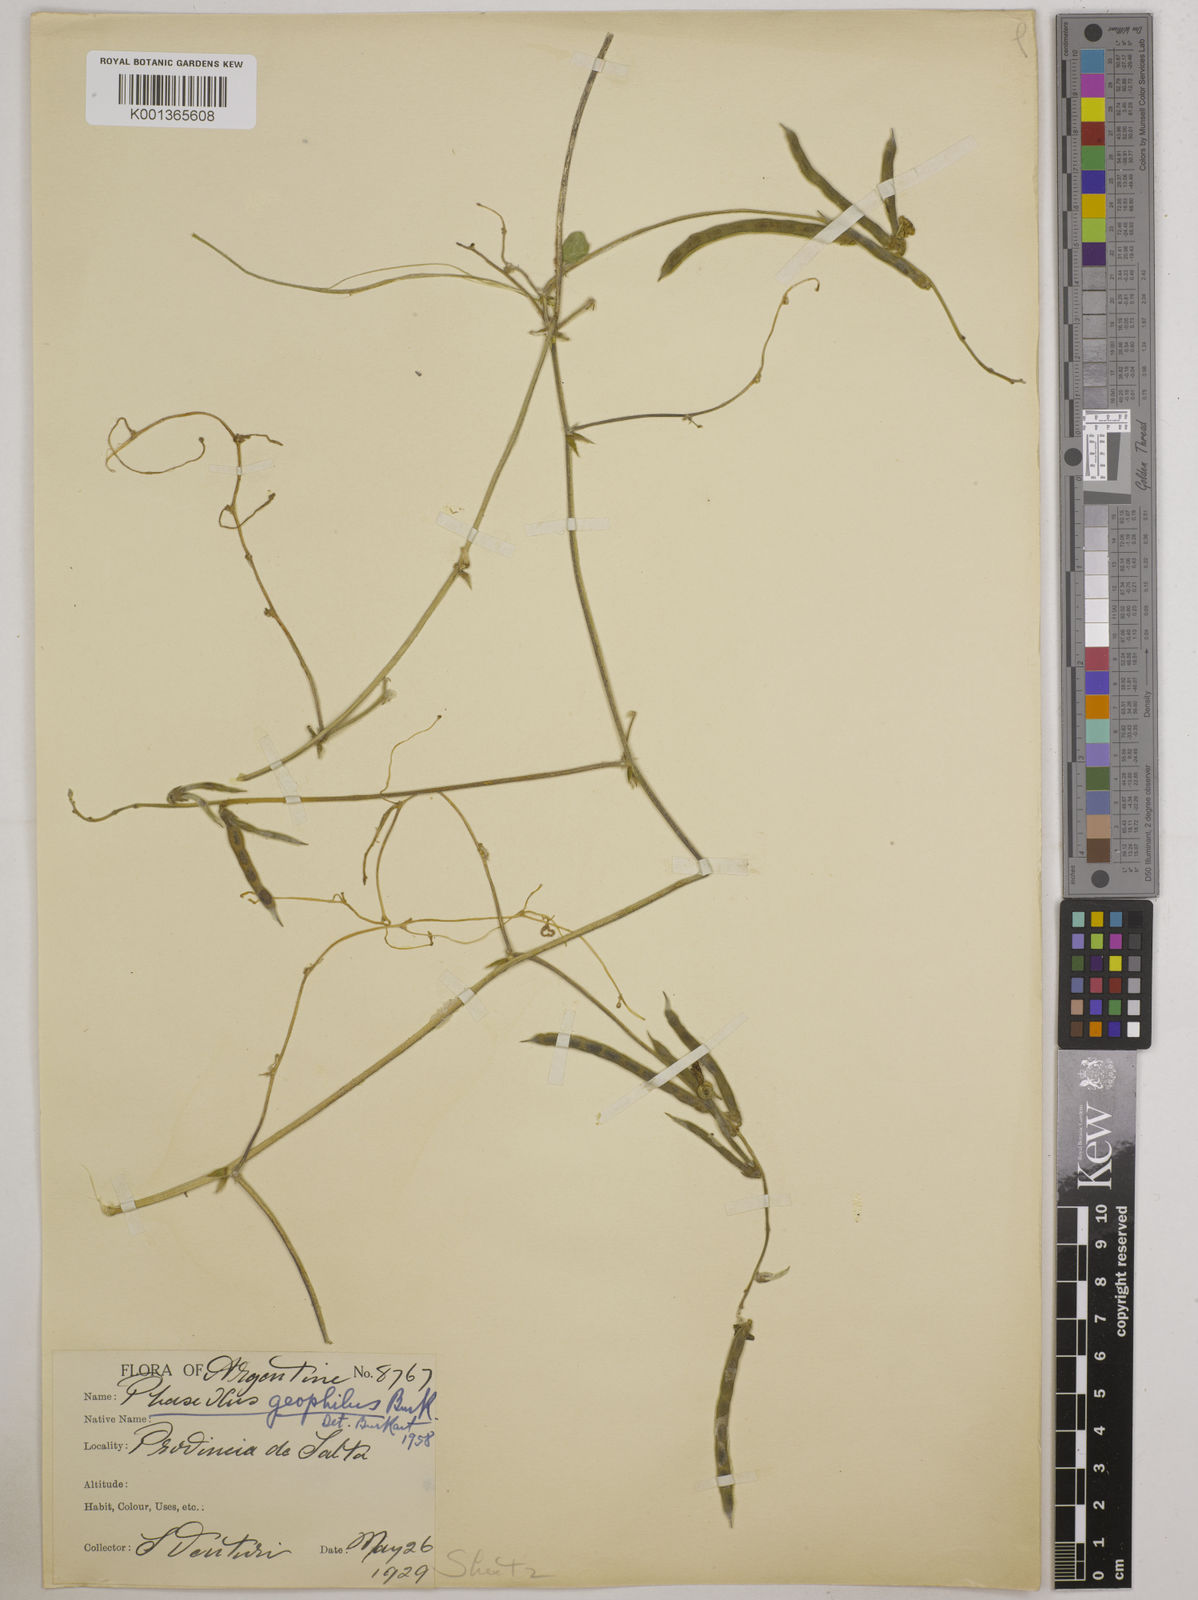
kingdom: Plantae
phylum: Tracheophyta
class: Magnoliopsida
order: Fabales
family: Fabaceae
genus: Macroptilium
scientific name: Macroptilium panduratum
